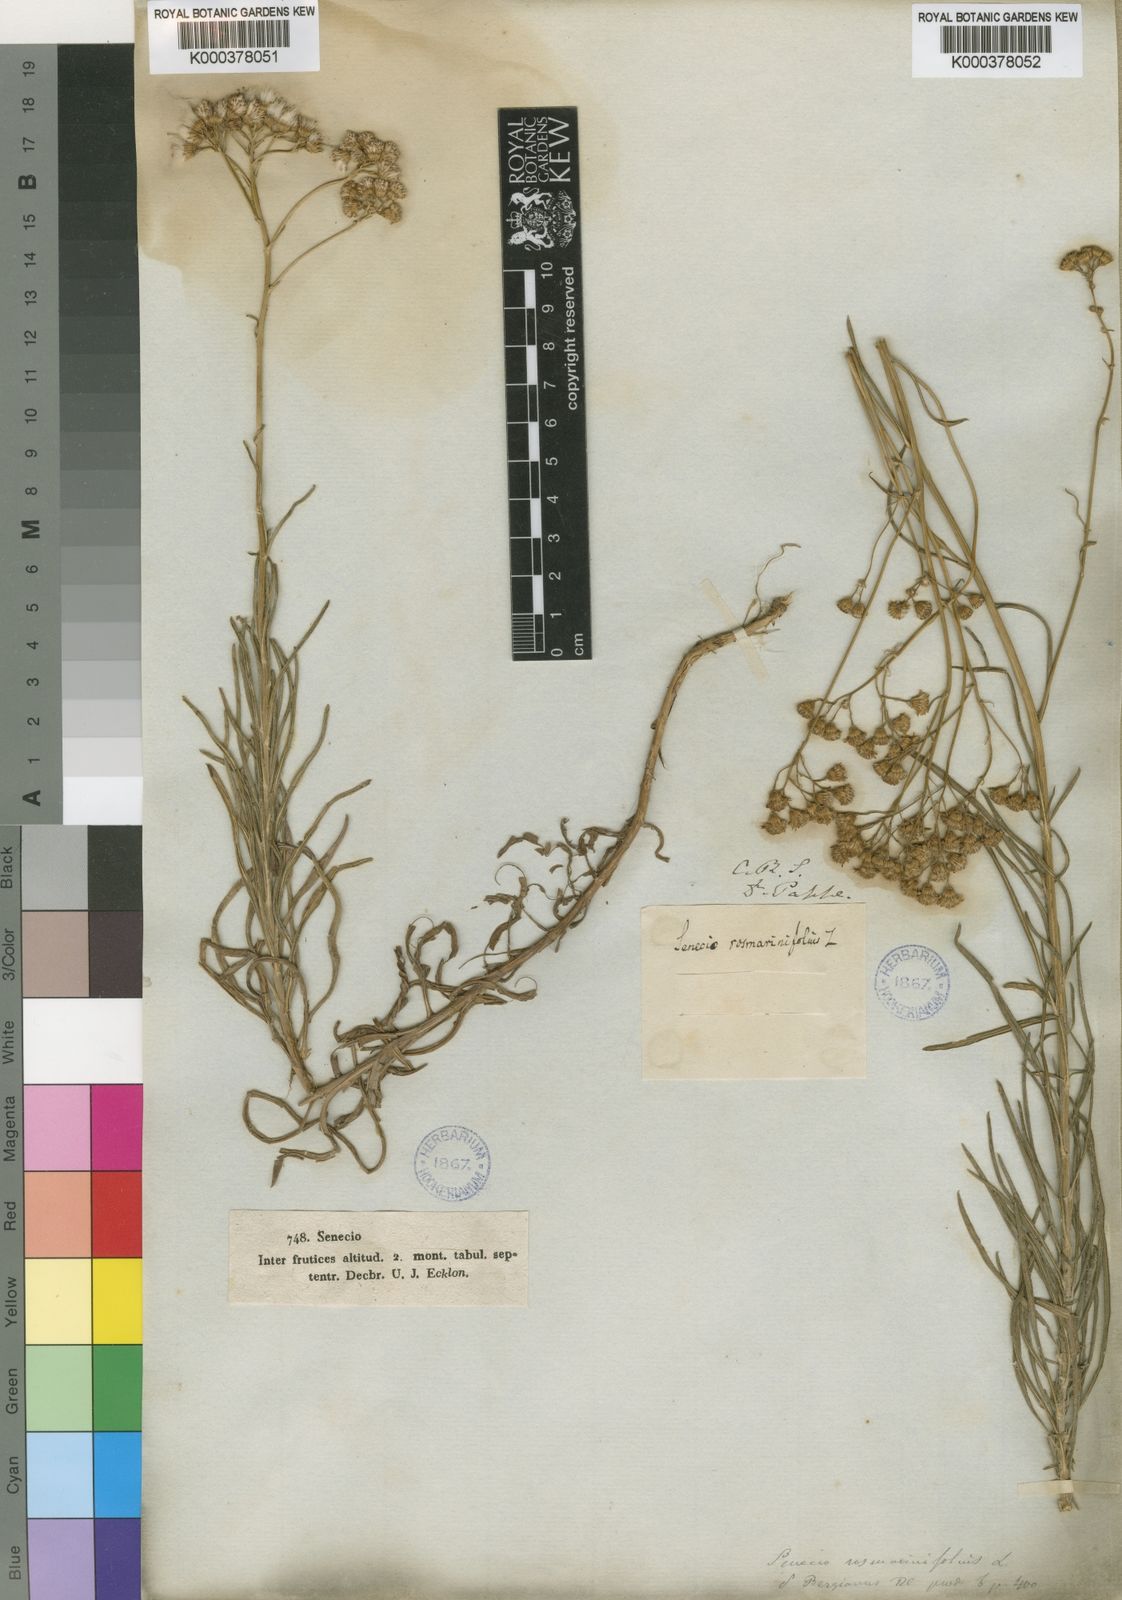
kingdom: Plantae
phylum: Tracheophyta
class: Magnoliopsida
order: Asterales
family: Asteraceae
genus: Senecio
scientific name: Senecio rosmarinifolius
